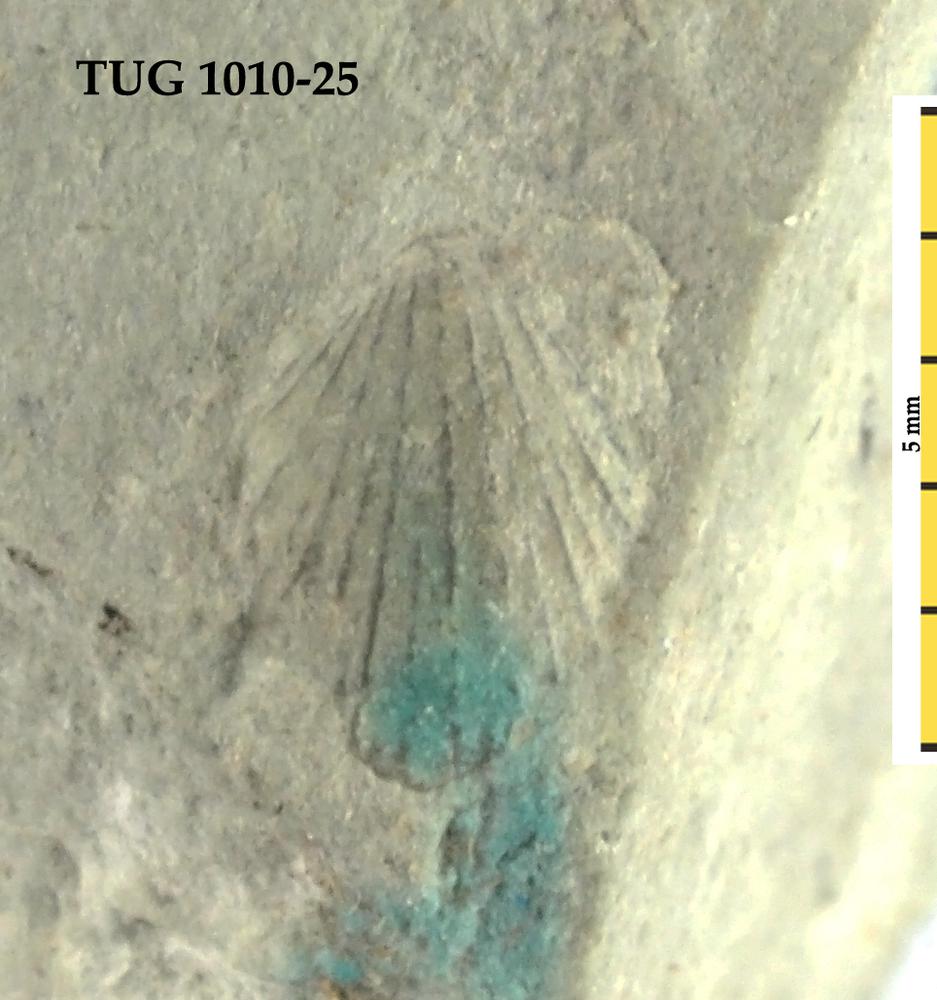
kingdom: Animalia
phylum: Brachiopoda
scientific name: Brachiopoda
